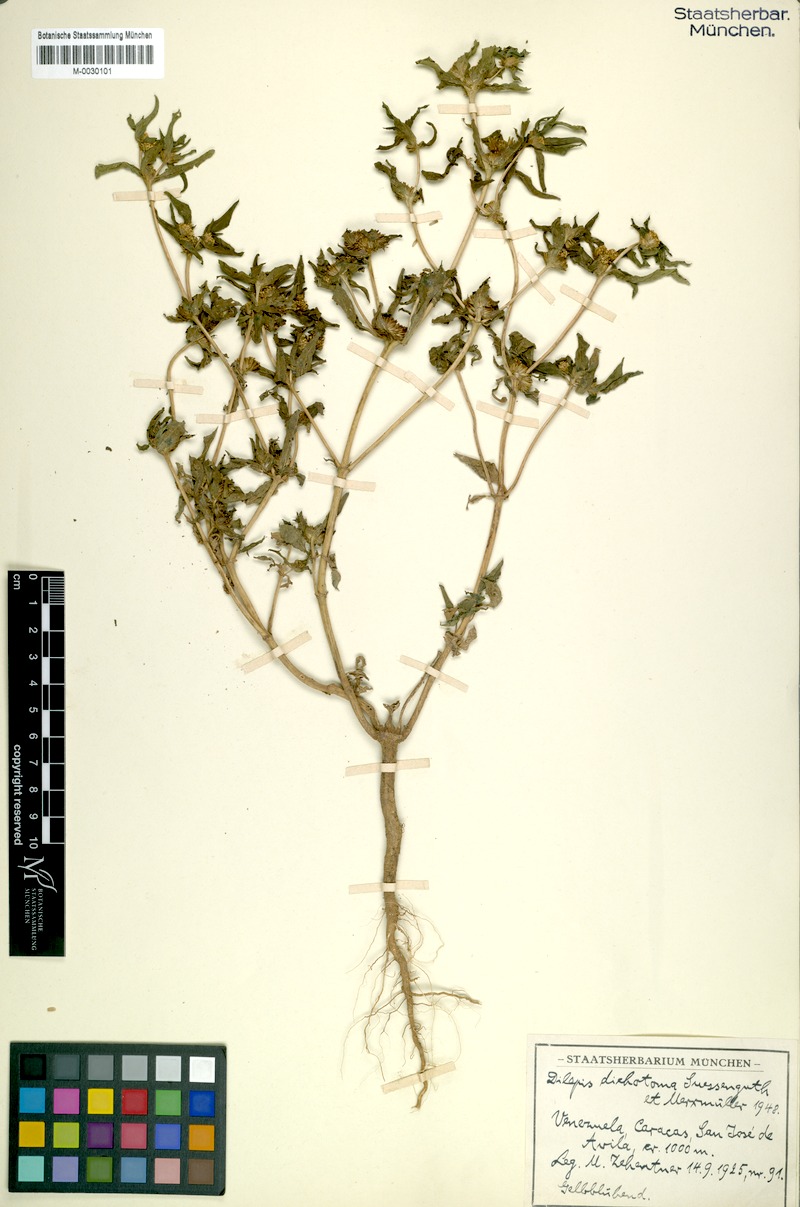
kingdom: Plantae
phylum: Tracheophyta
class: Magnoliopsida
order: Asterales
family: Asteraceae
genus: Flaveria
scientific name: Flaveria trinervia
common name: Clustered yellowtops
